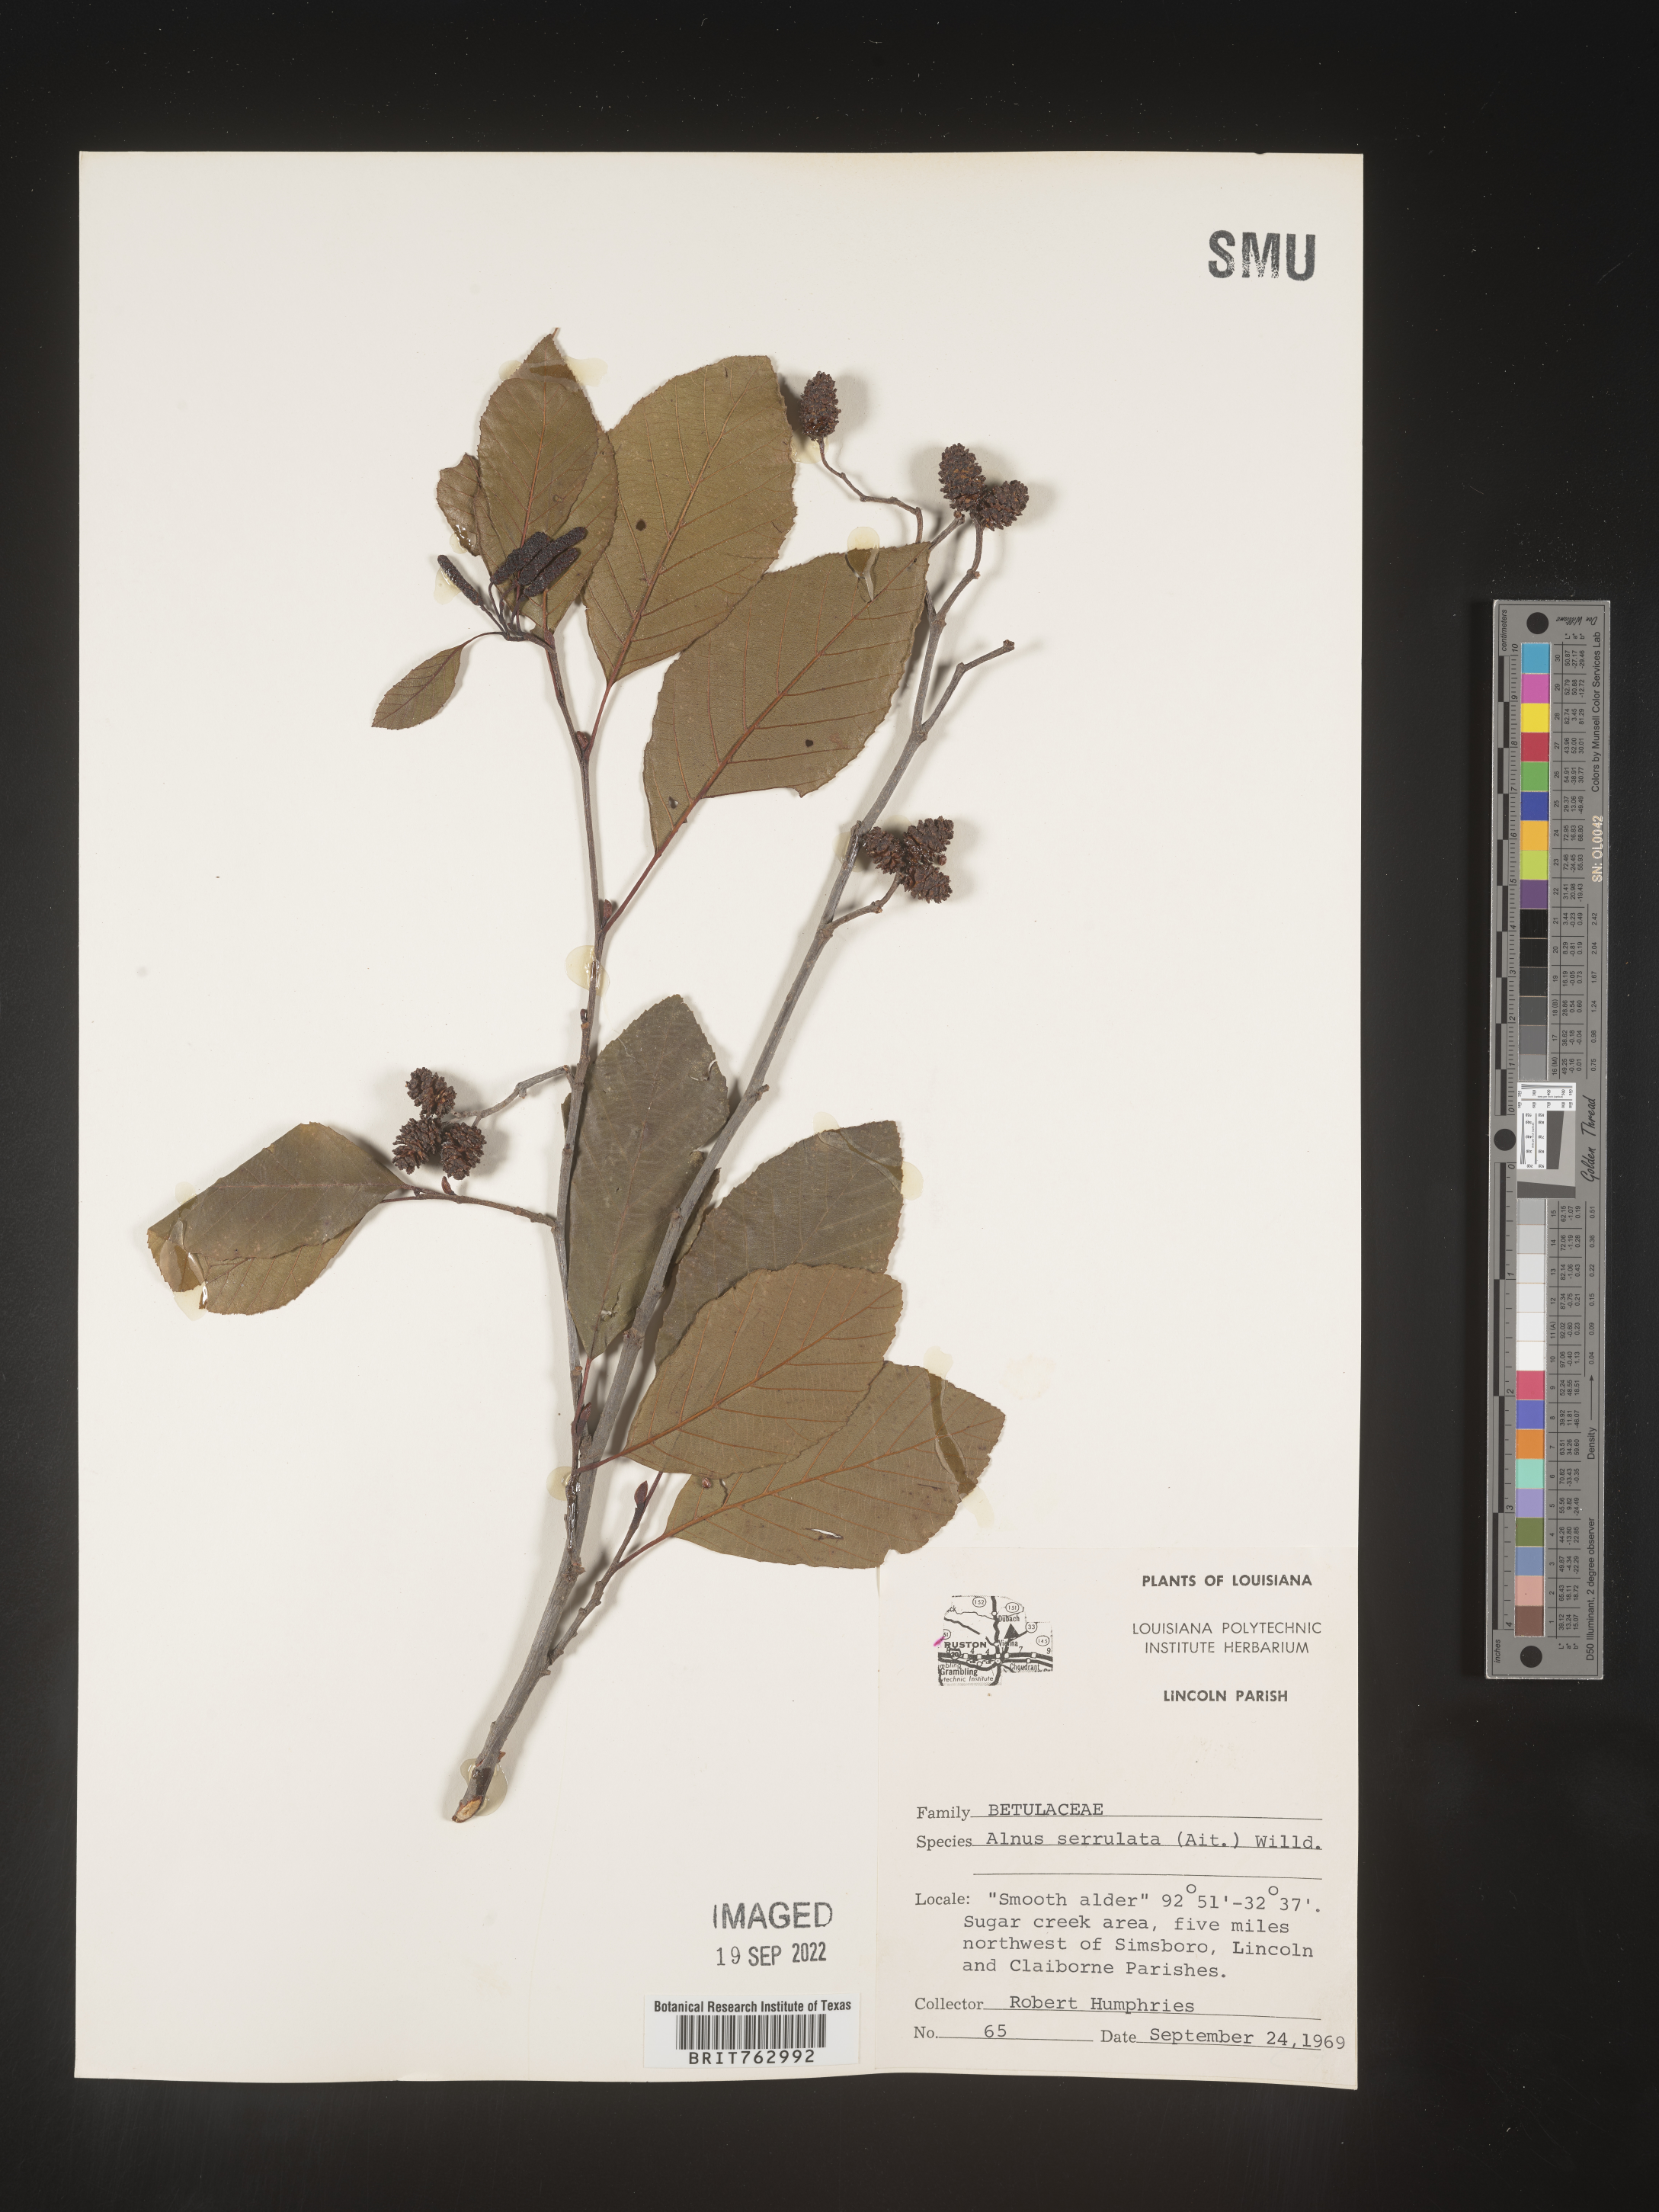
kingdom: Plantae
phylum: Tracheophyta
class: Magnoliopsida
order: Fagales
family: Betulaceae
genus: Alnus
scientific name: Alnus serrulata
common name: Hazel alder
